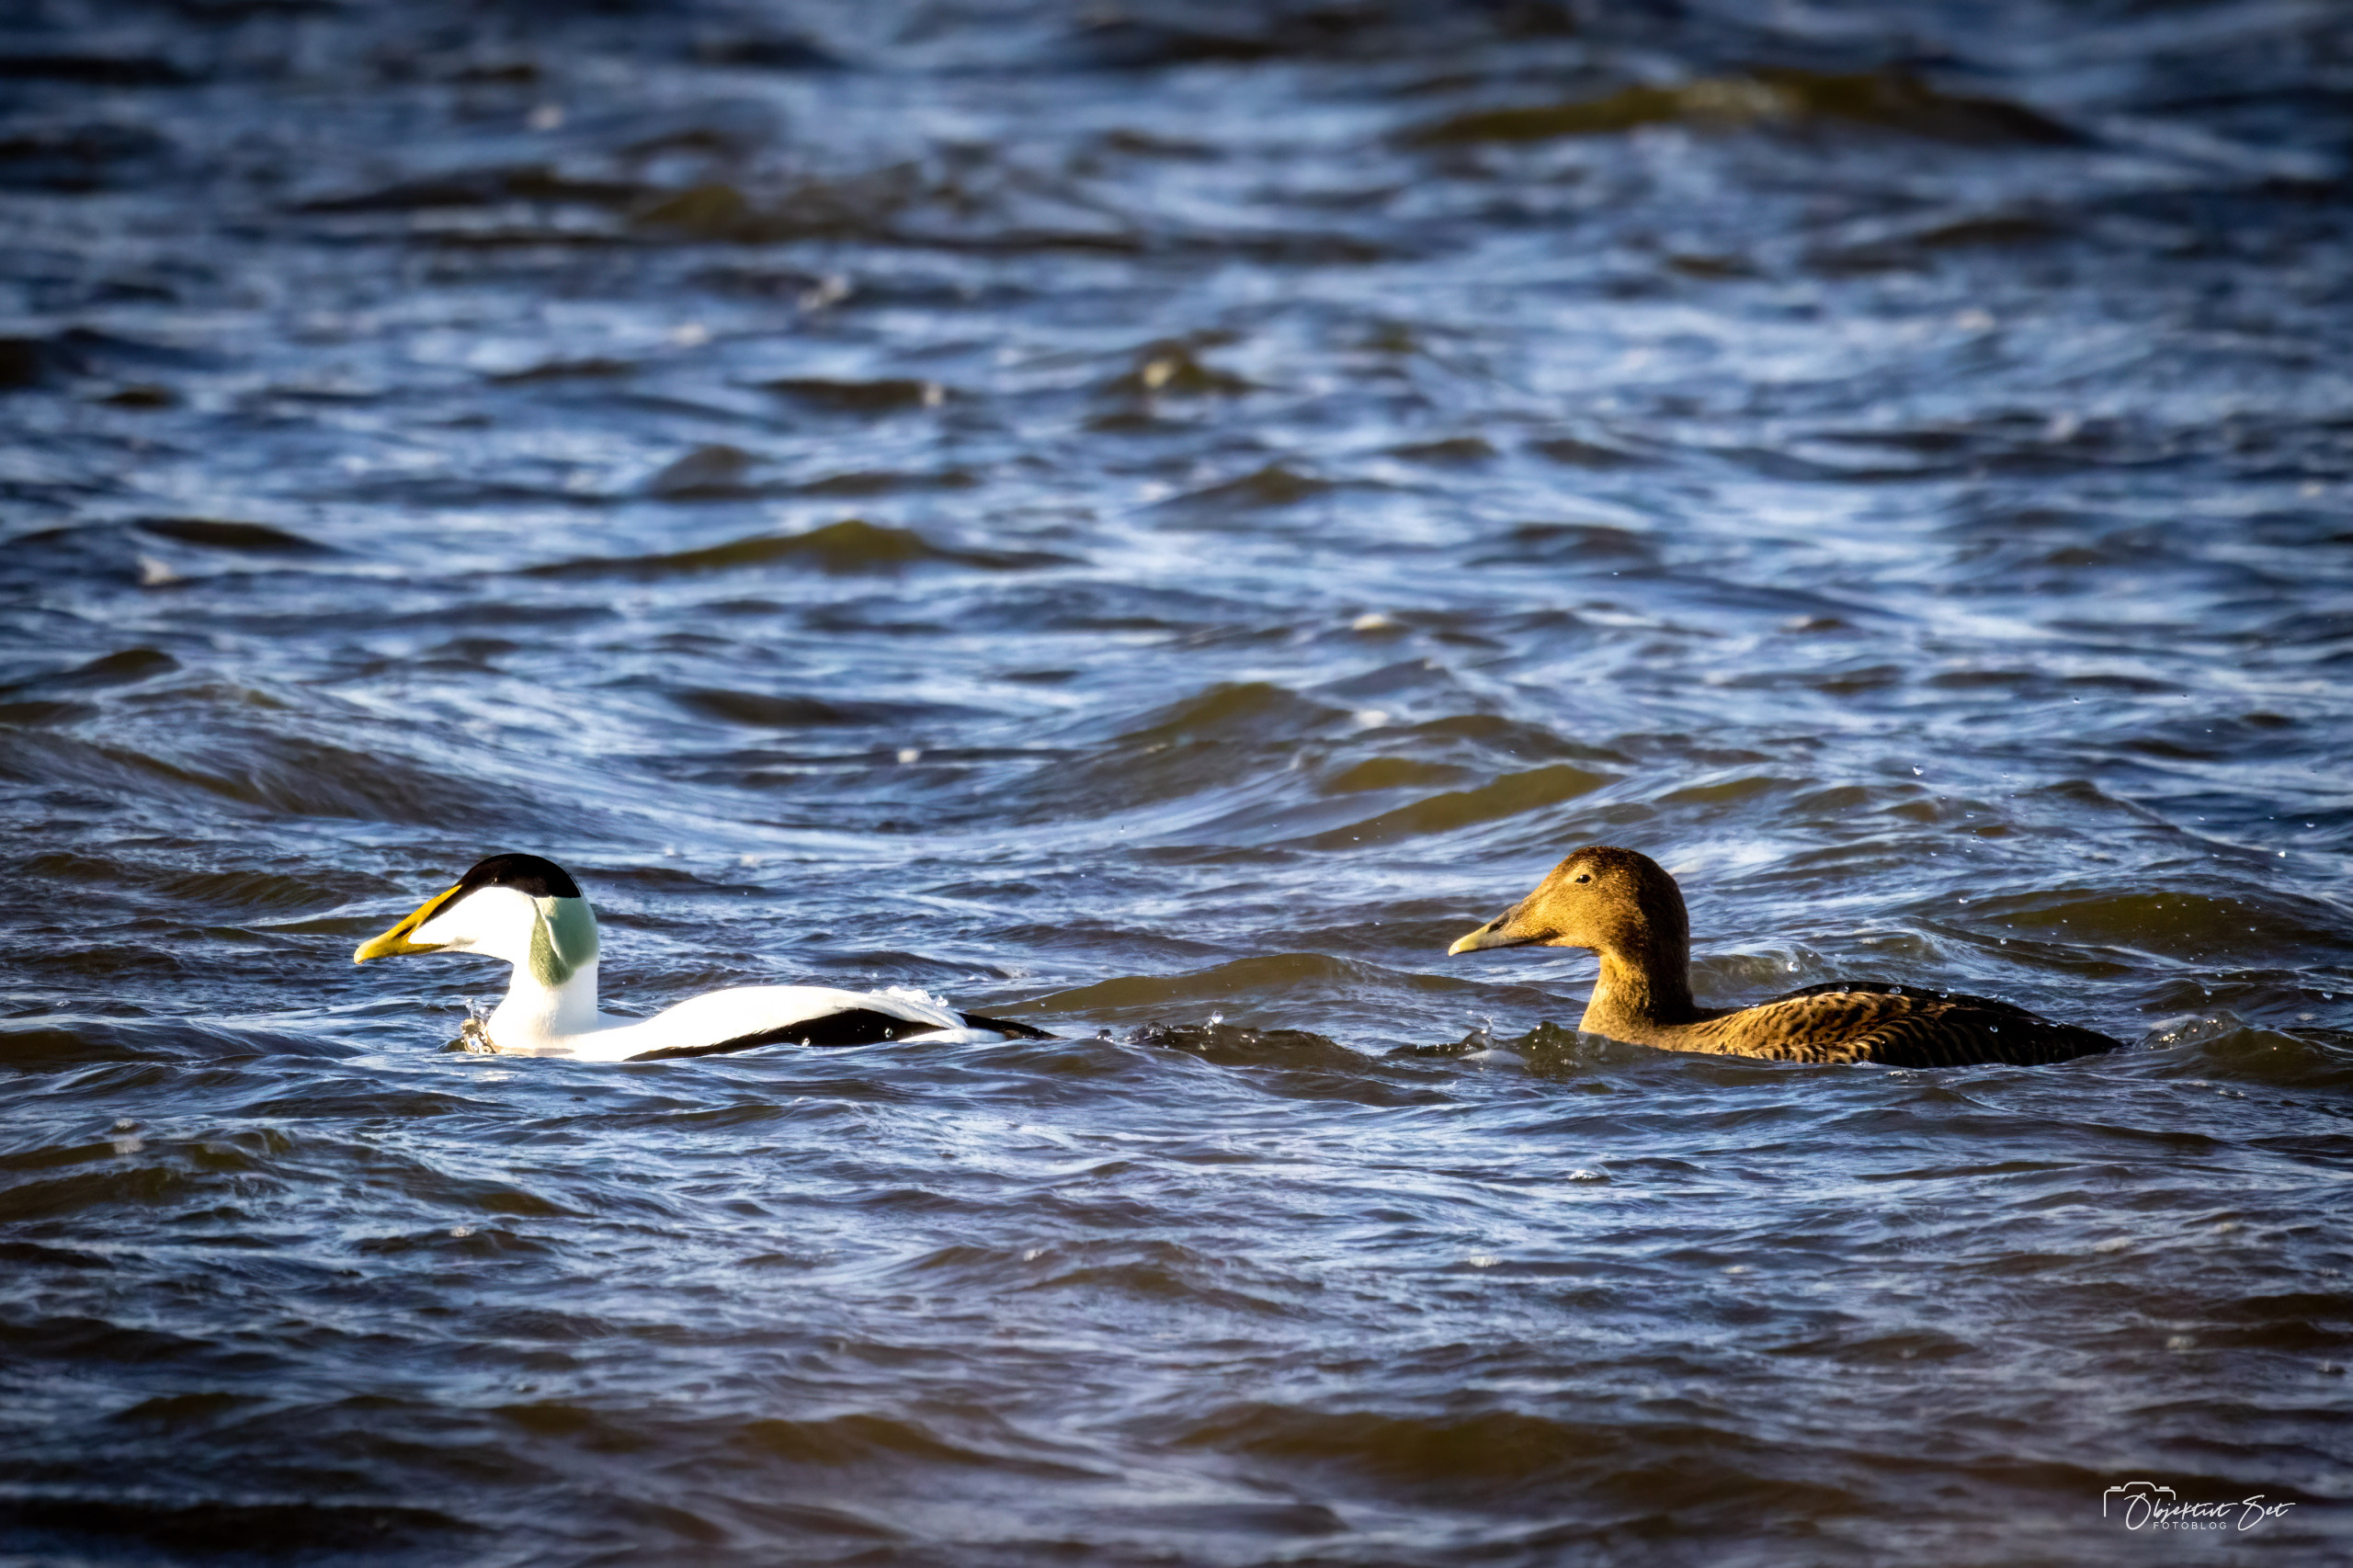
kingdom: Animalia
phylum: Chordata
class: Aves
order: Anseriformes
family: Anatidae
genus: Somateria
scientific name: Somateria mollissima
